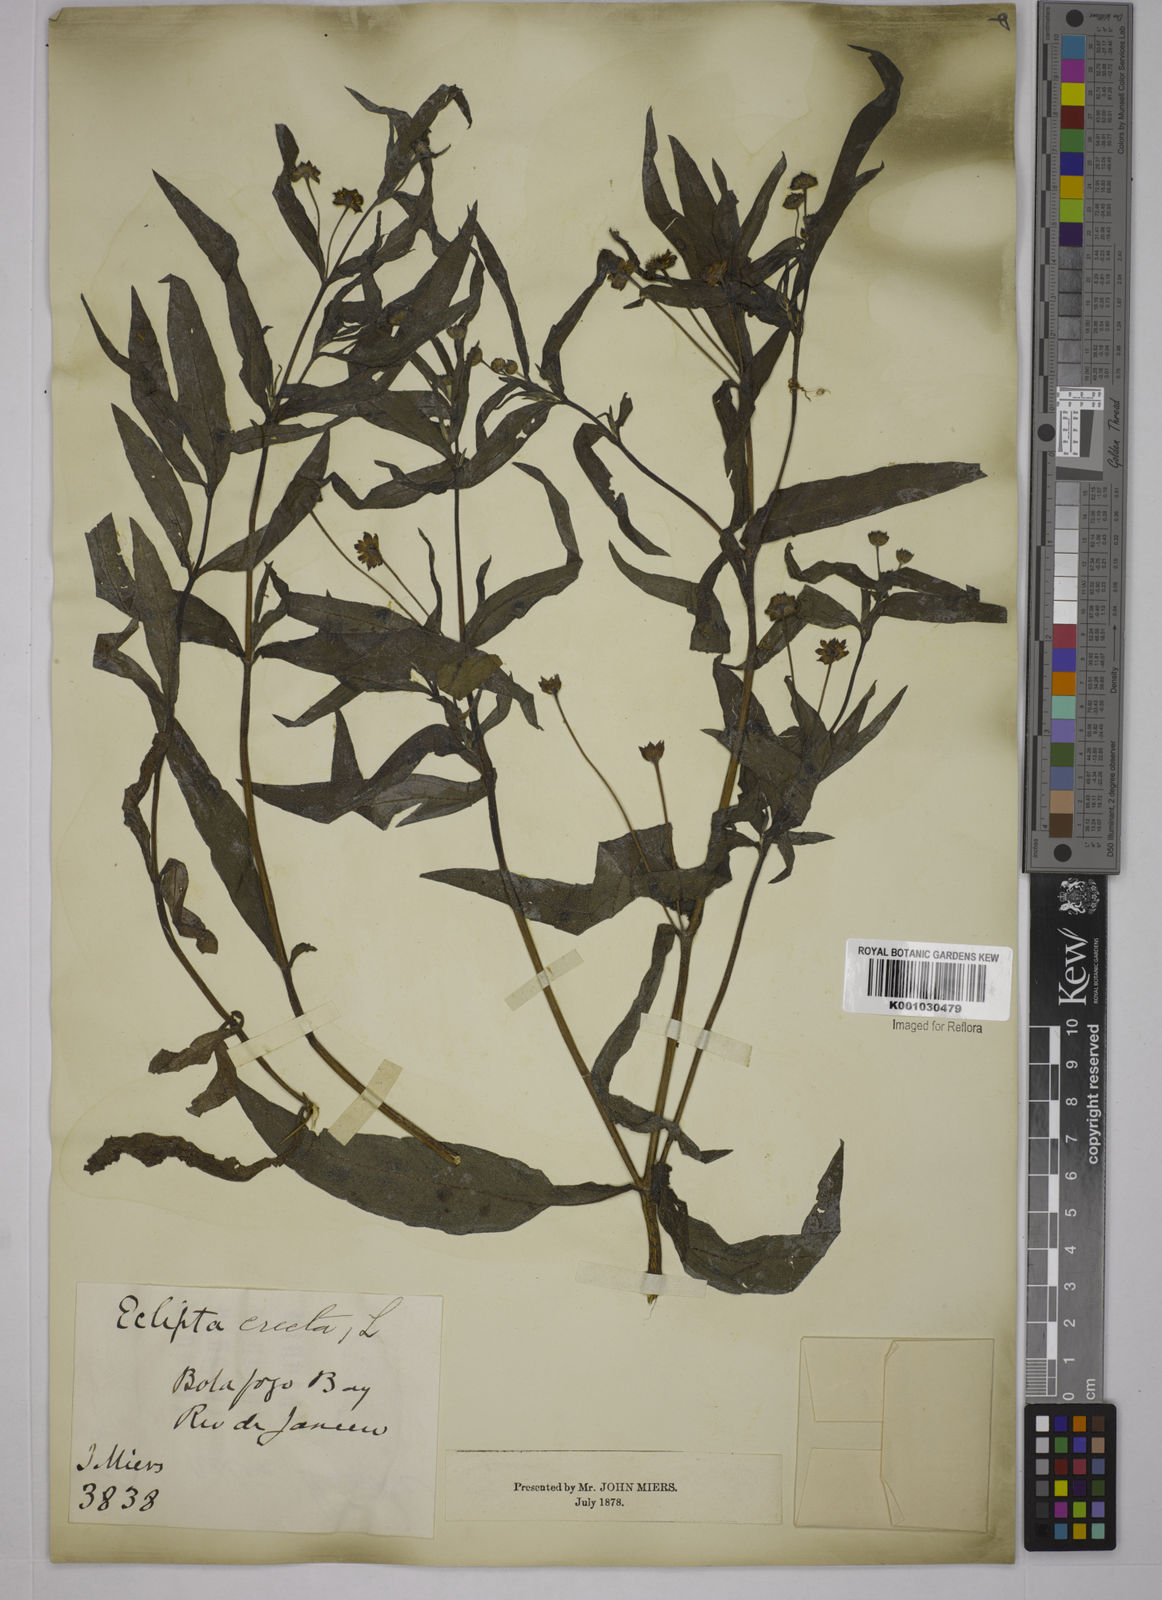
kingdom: Plantae
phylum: Tracheophyta
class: Magnoliopsida
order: Asterales
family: Asteraceae
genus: Eclipta
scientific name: Eclipta prostrata
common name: False daisy
